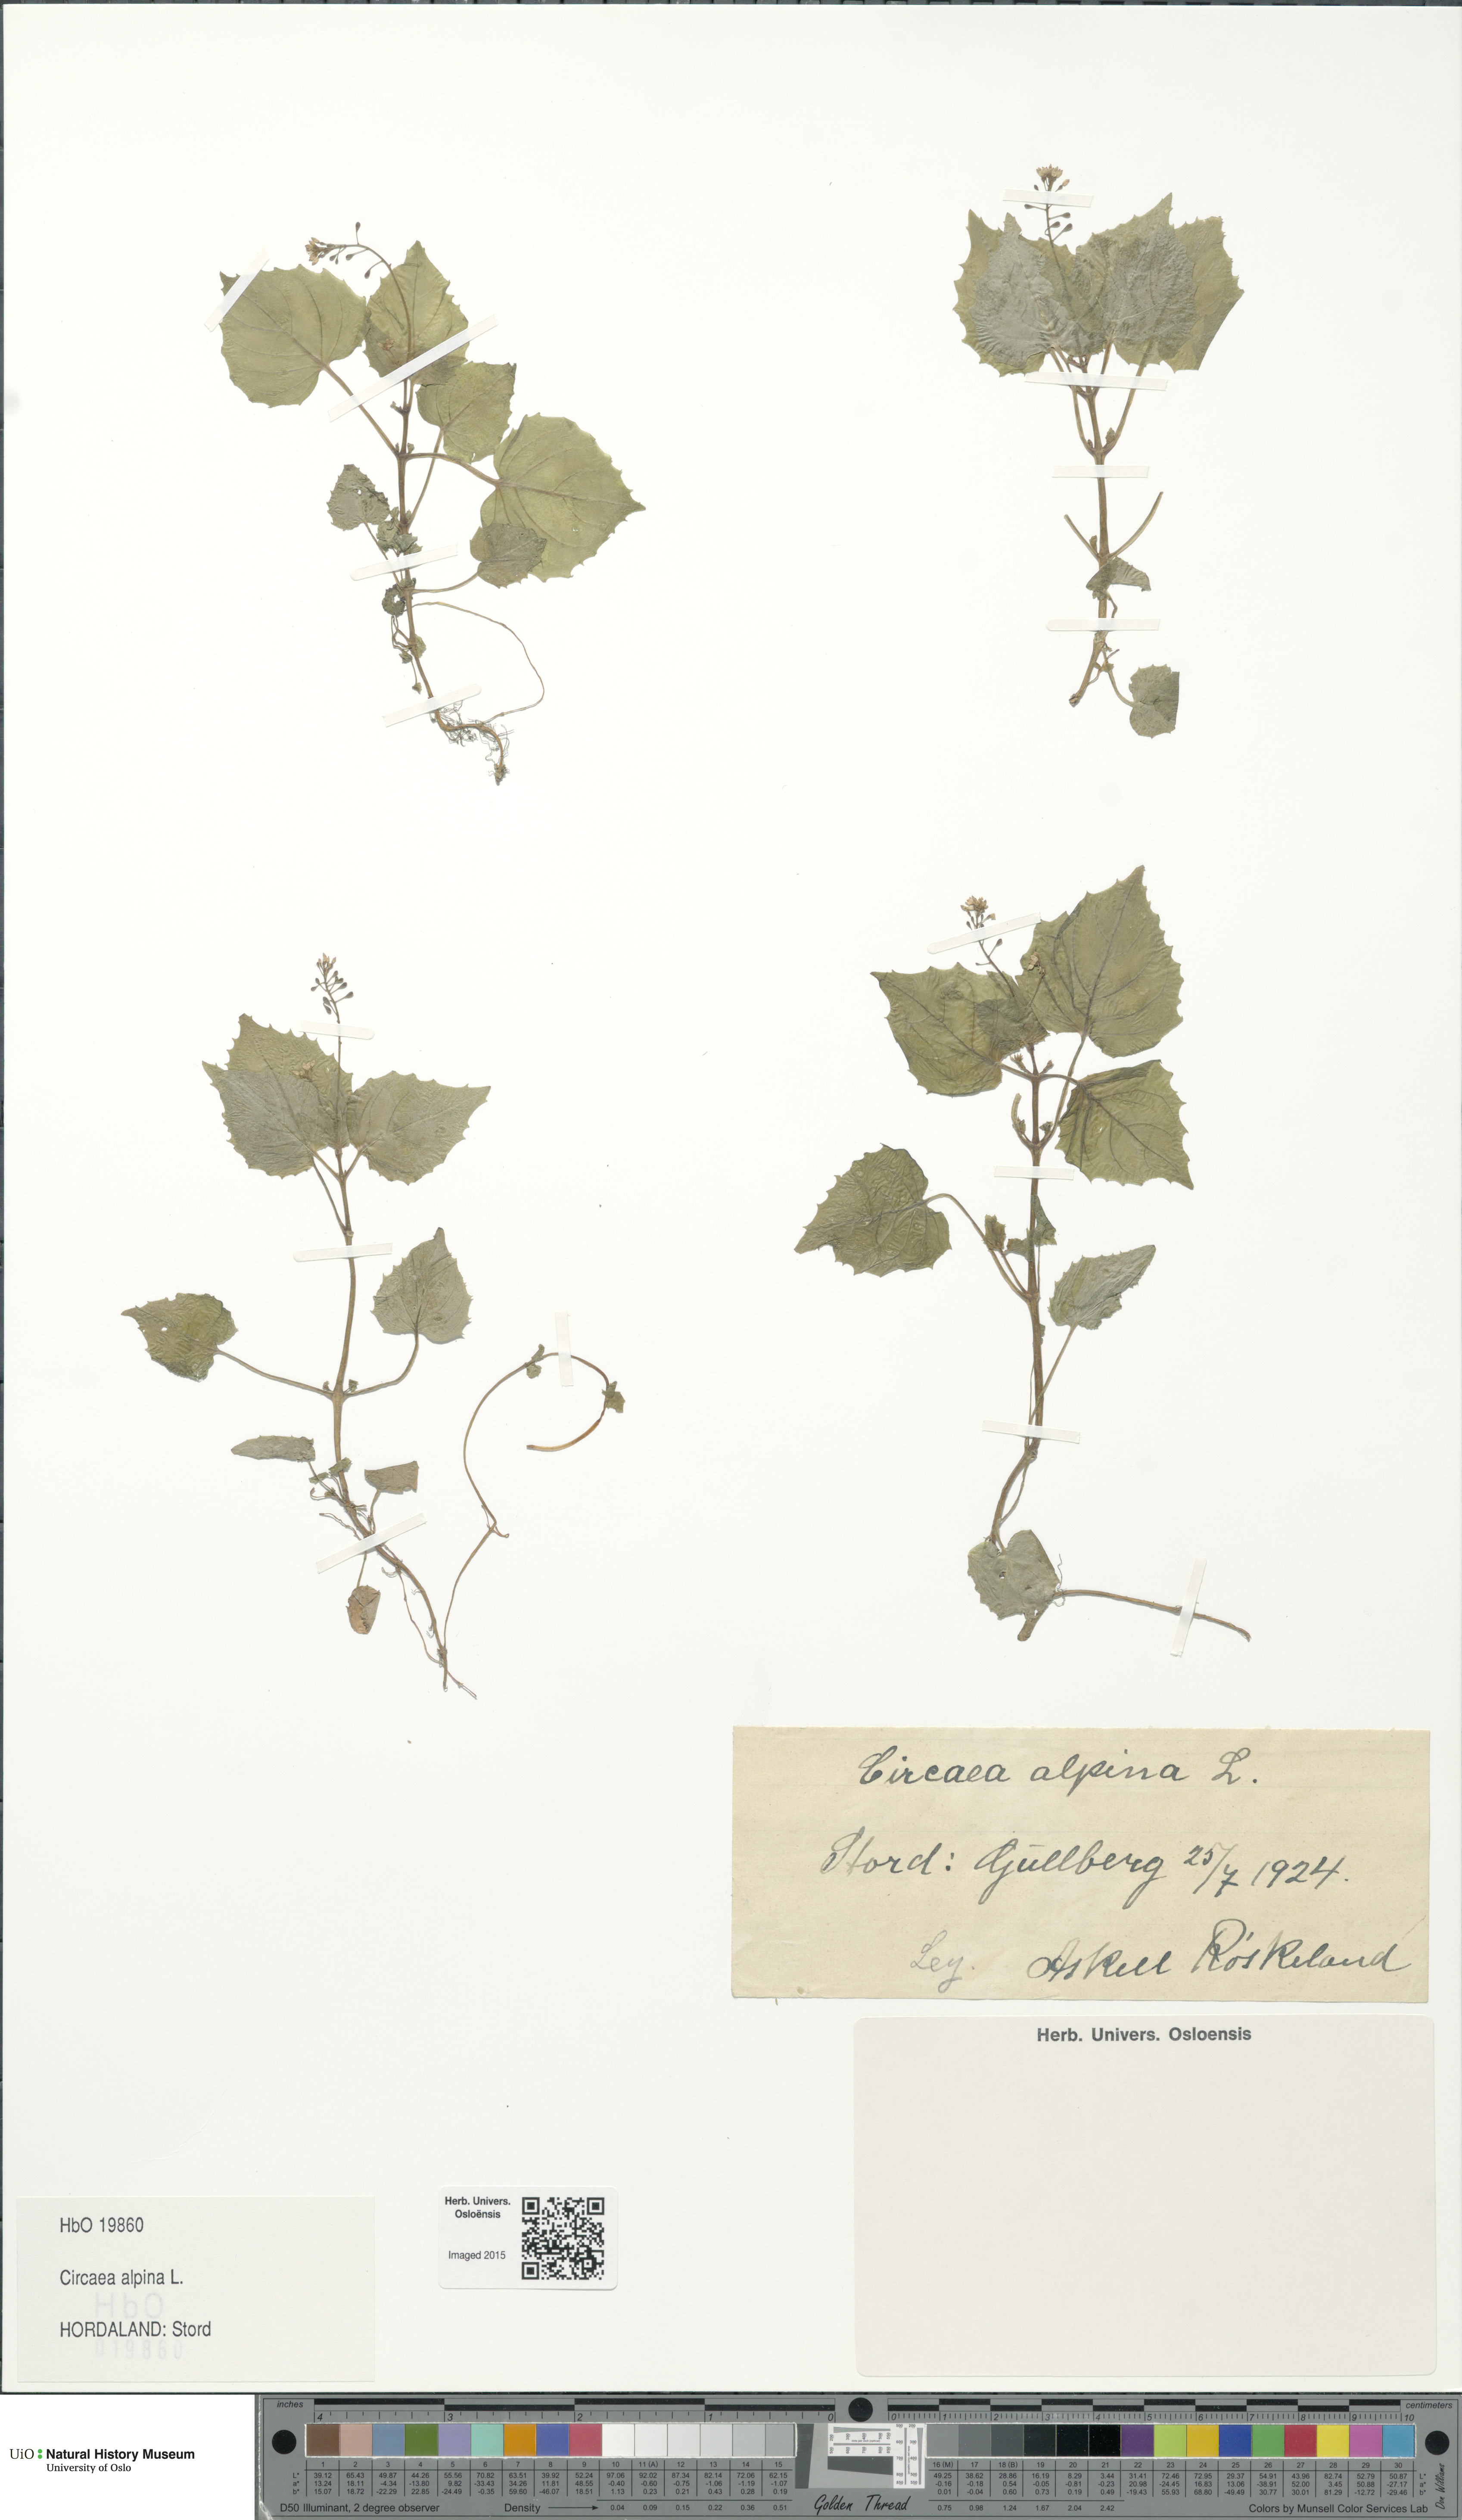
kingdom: Plantae
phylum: Tracheophyta
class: Magnoliopsida
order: Myrtales
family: Onagraceae
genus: Circaea
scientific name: Circaea alpina
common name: Alpine enchanter's-nightshade
